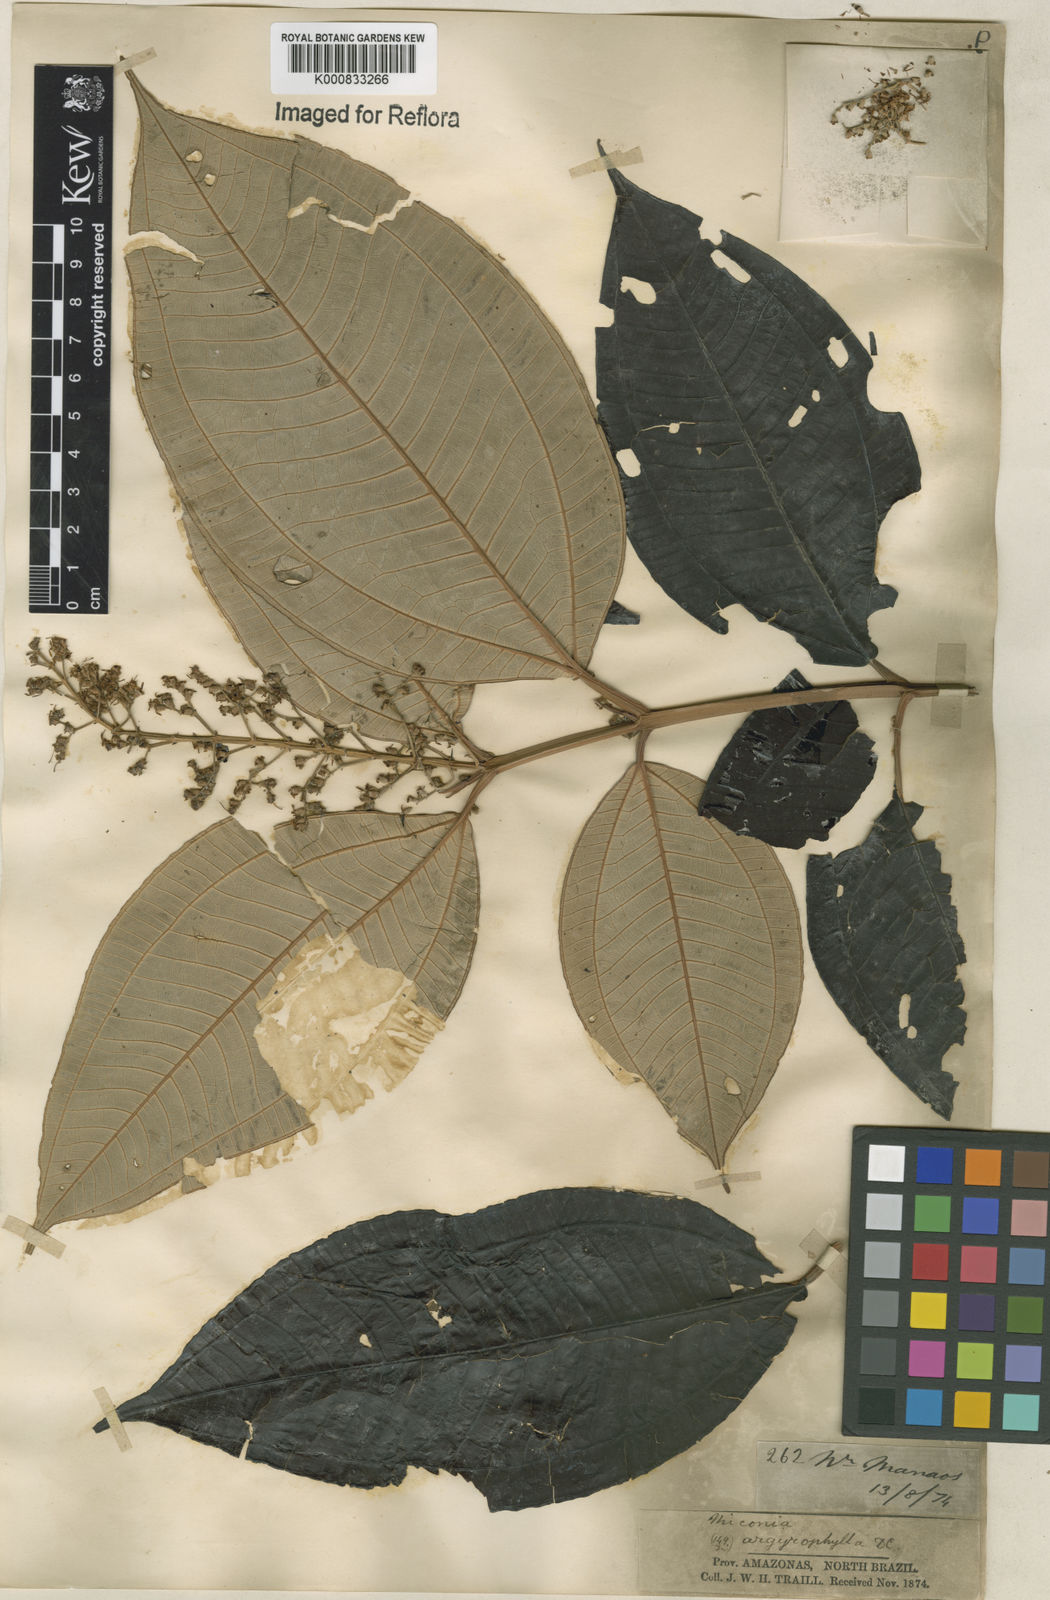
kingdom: Plantae
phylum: Tracheophyta
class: Magnoliopsida
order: Myrtales
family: Melastomataceae
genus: Miconia
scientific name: Miconia argyrophylla
